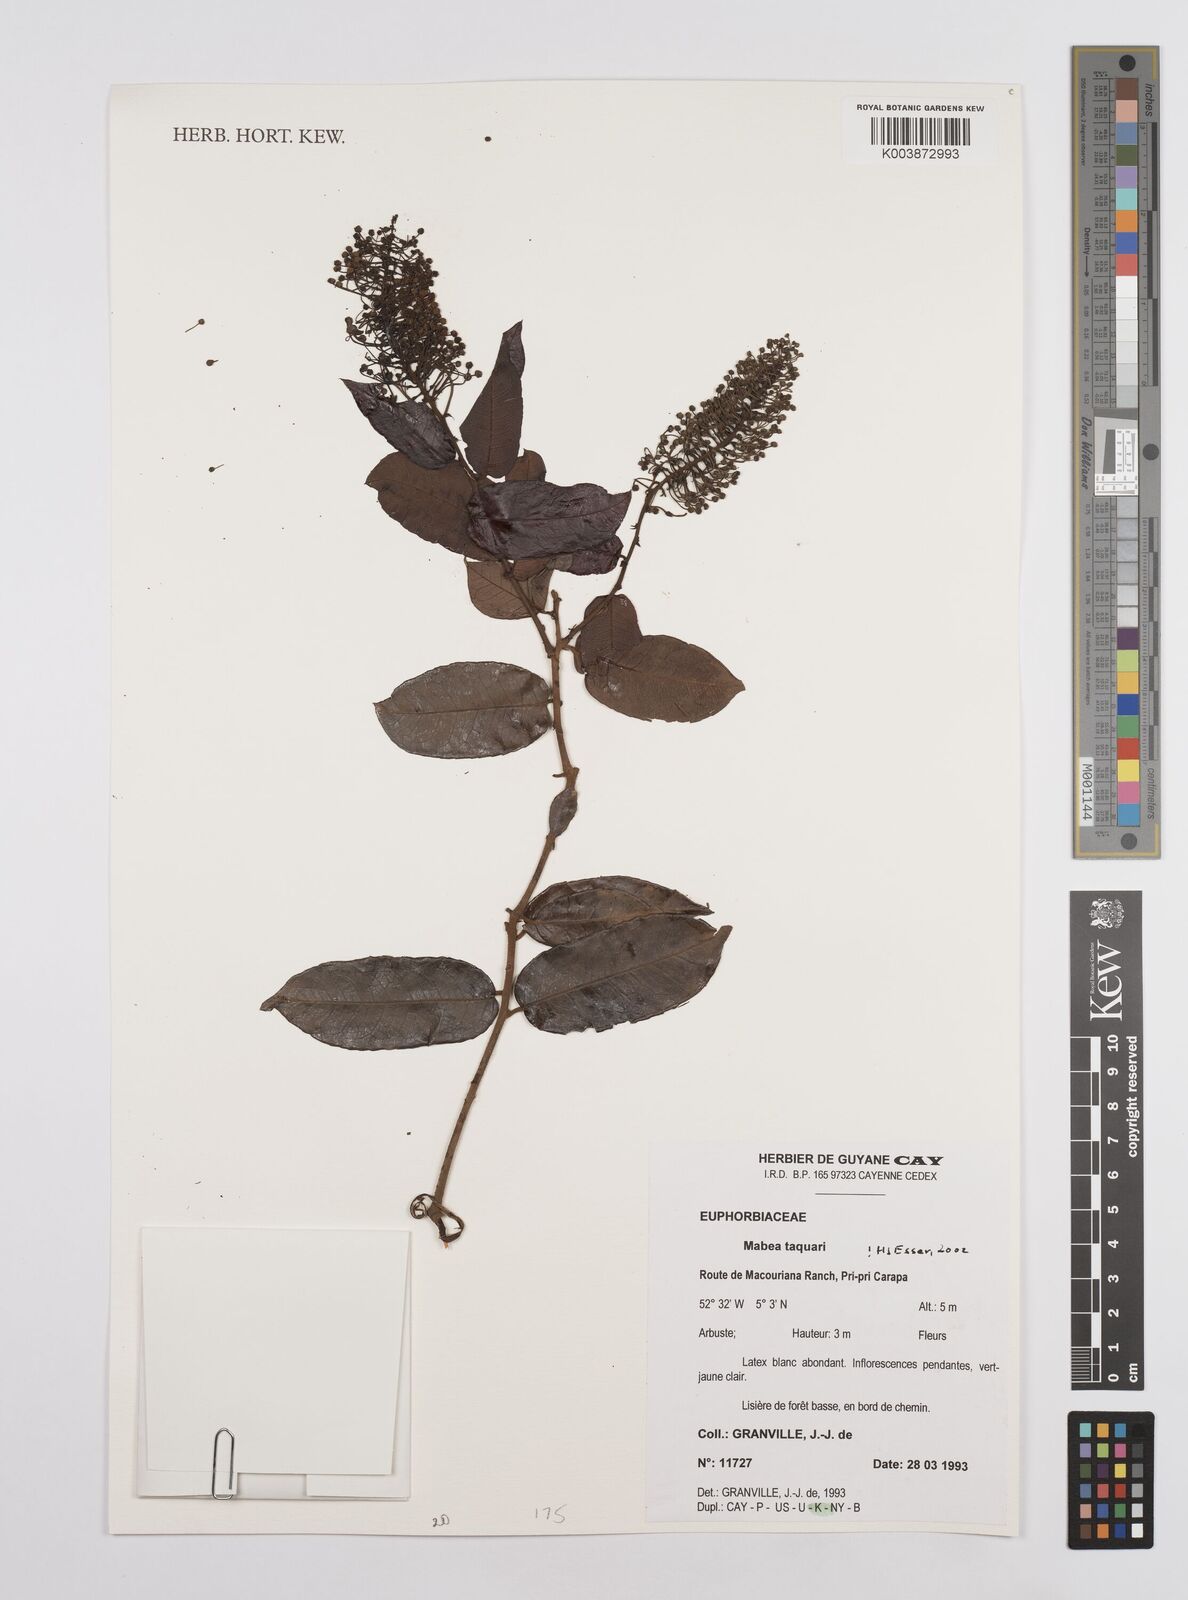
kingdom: Plantae
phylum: Tracheophyta
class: Magnoliopsida
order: Malpighiales
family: Euphorbiaceae
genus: Mabea
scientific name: Mabea taquari
